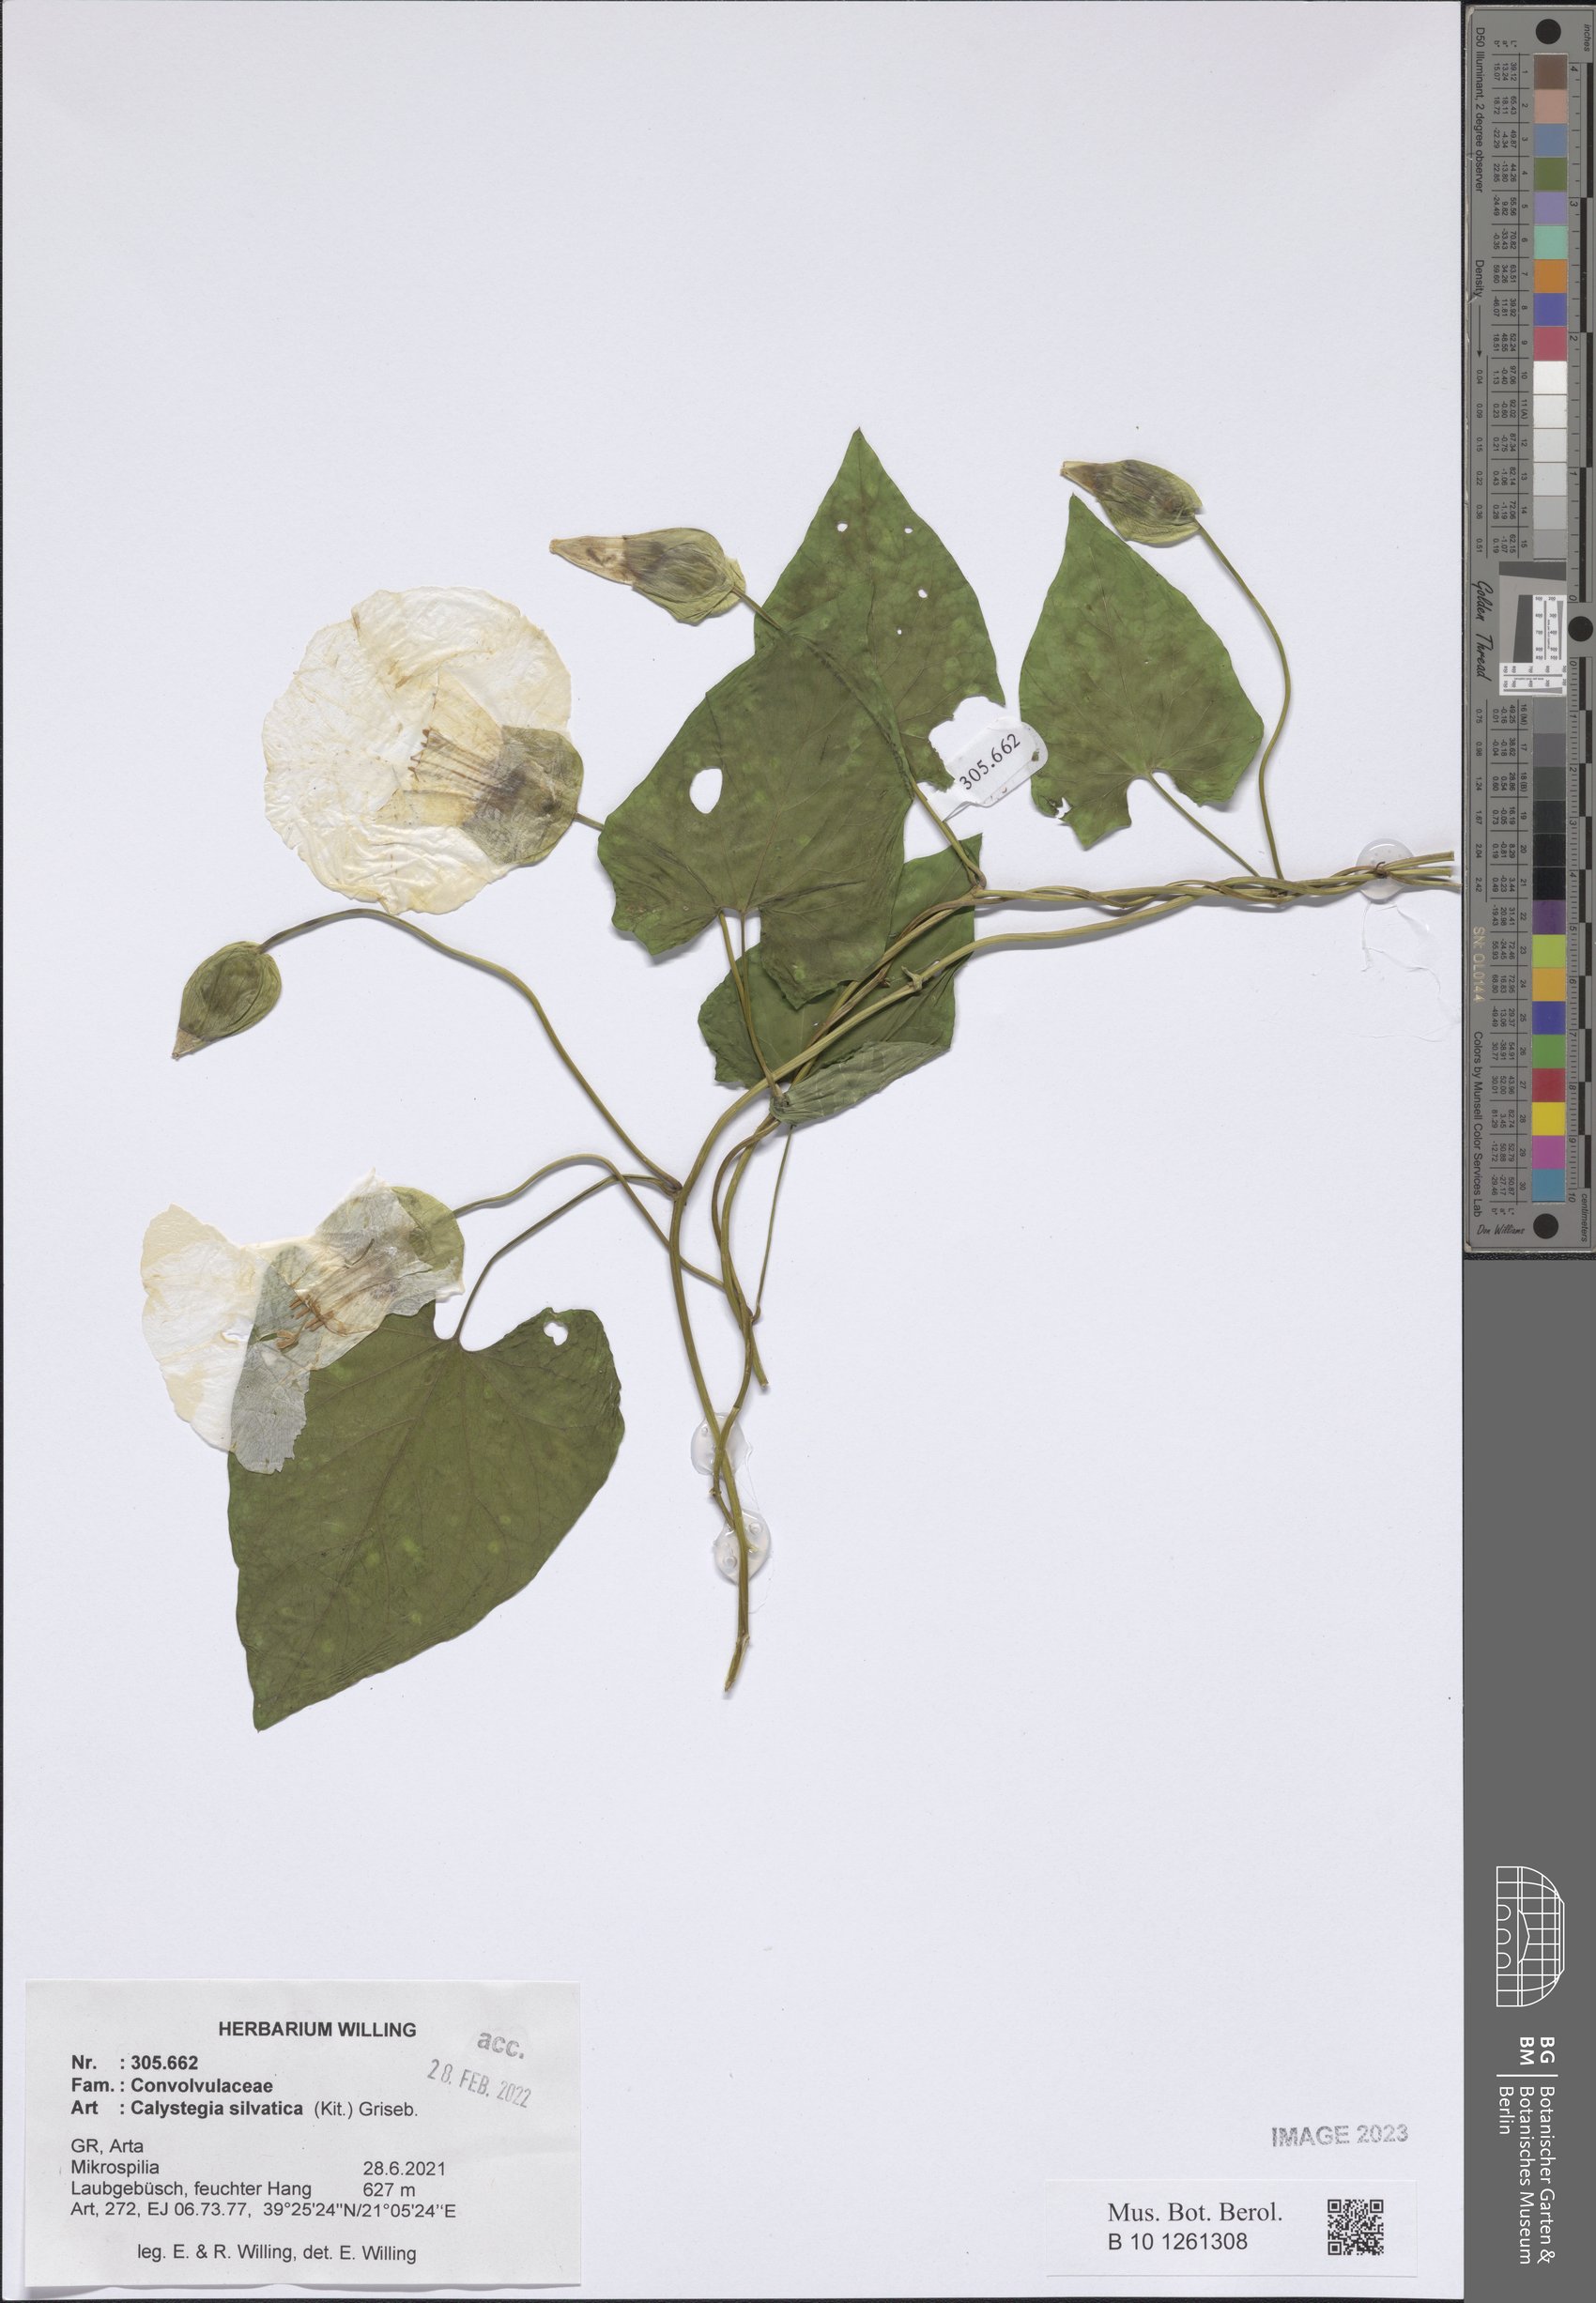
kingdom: Plantae
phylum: Tracheophyta
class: Magnoliopsida
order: Solanales
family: Convolvulaceae
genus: Calystegia
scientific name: Calystegia silvatica
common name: Large bindweed
